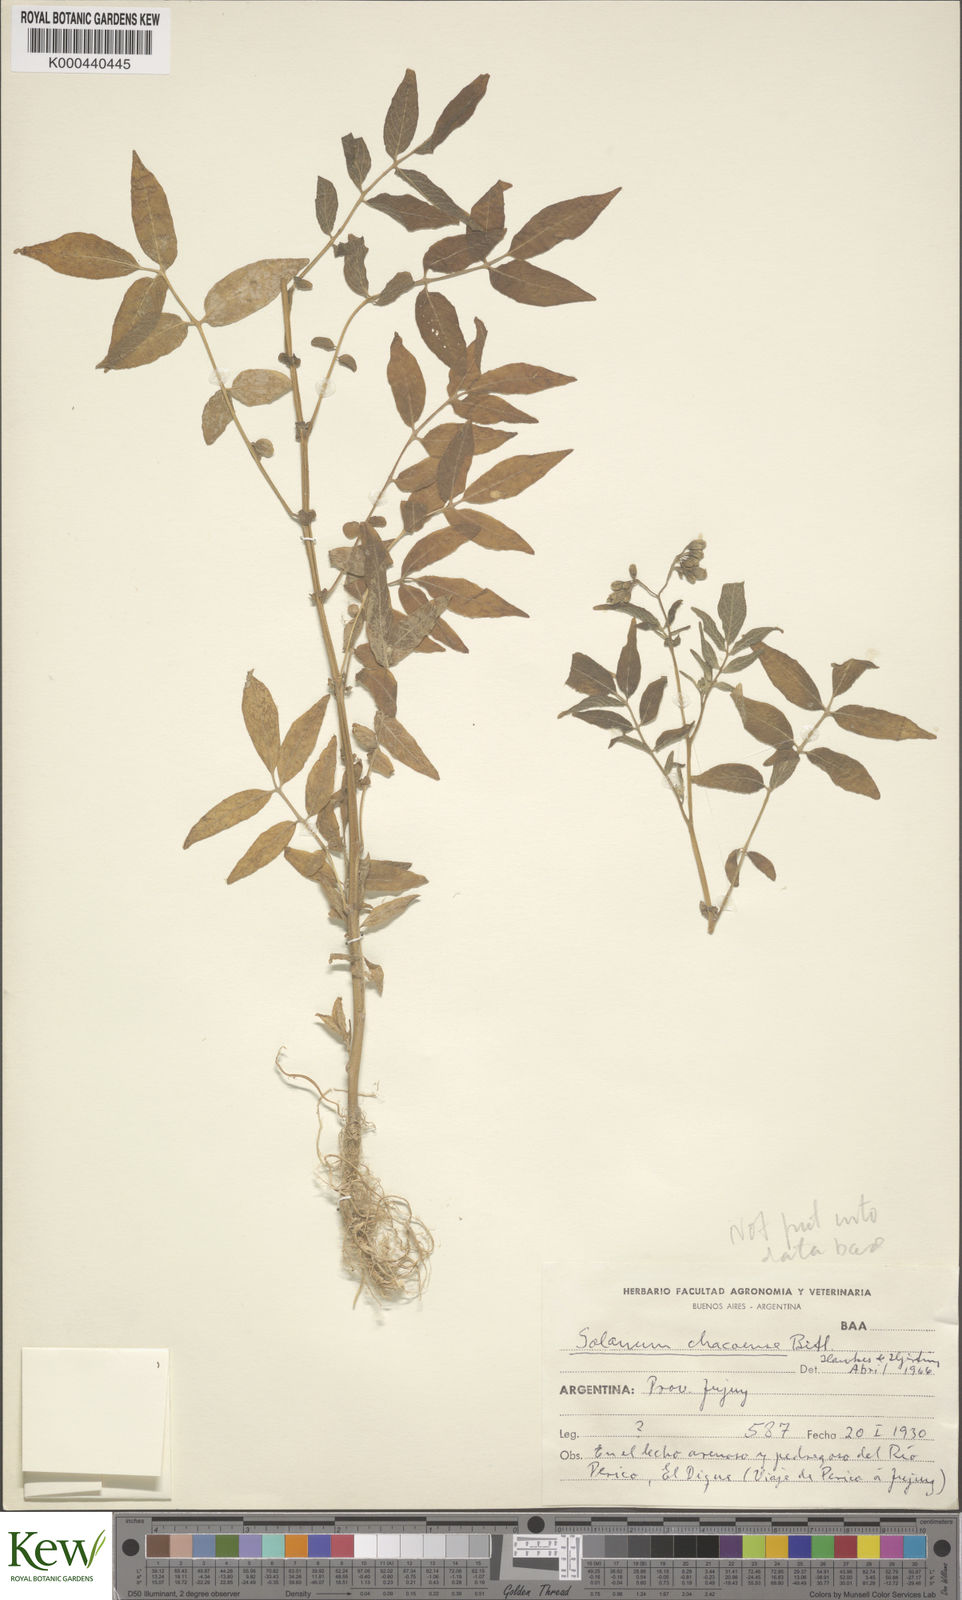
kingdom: Plantae
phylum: Tracheophyta
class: Magnoliopsida
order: Solanales
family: Solanaceae
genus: Solanum
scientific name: Solanum chacoense
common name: Chaco potato
